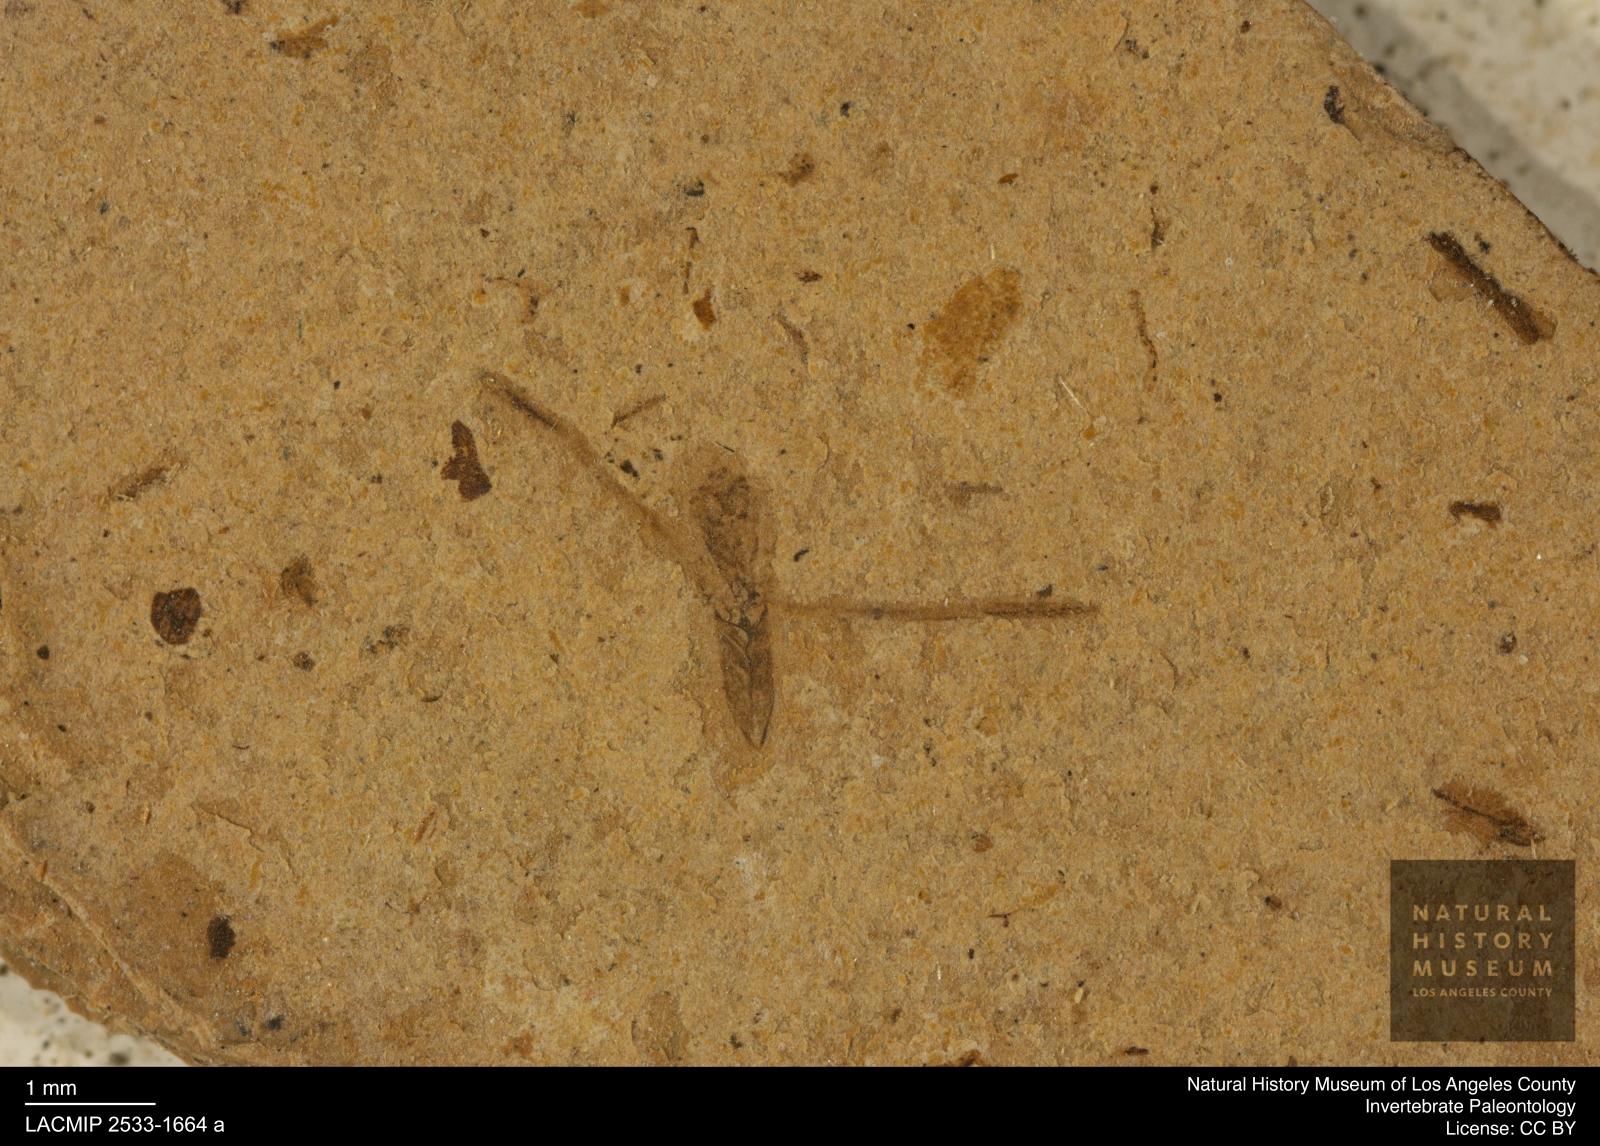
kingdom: Animalia
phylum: Arthropoda
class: Insecta
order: Hemiptera
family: Notonectidae
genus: Notonecta
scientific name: Notonecta
